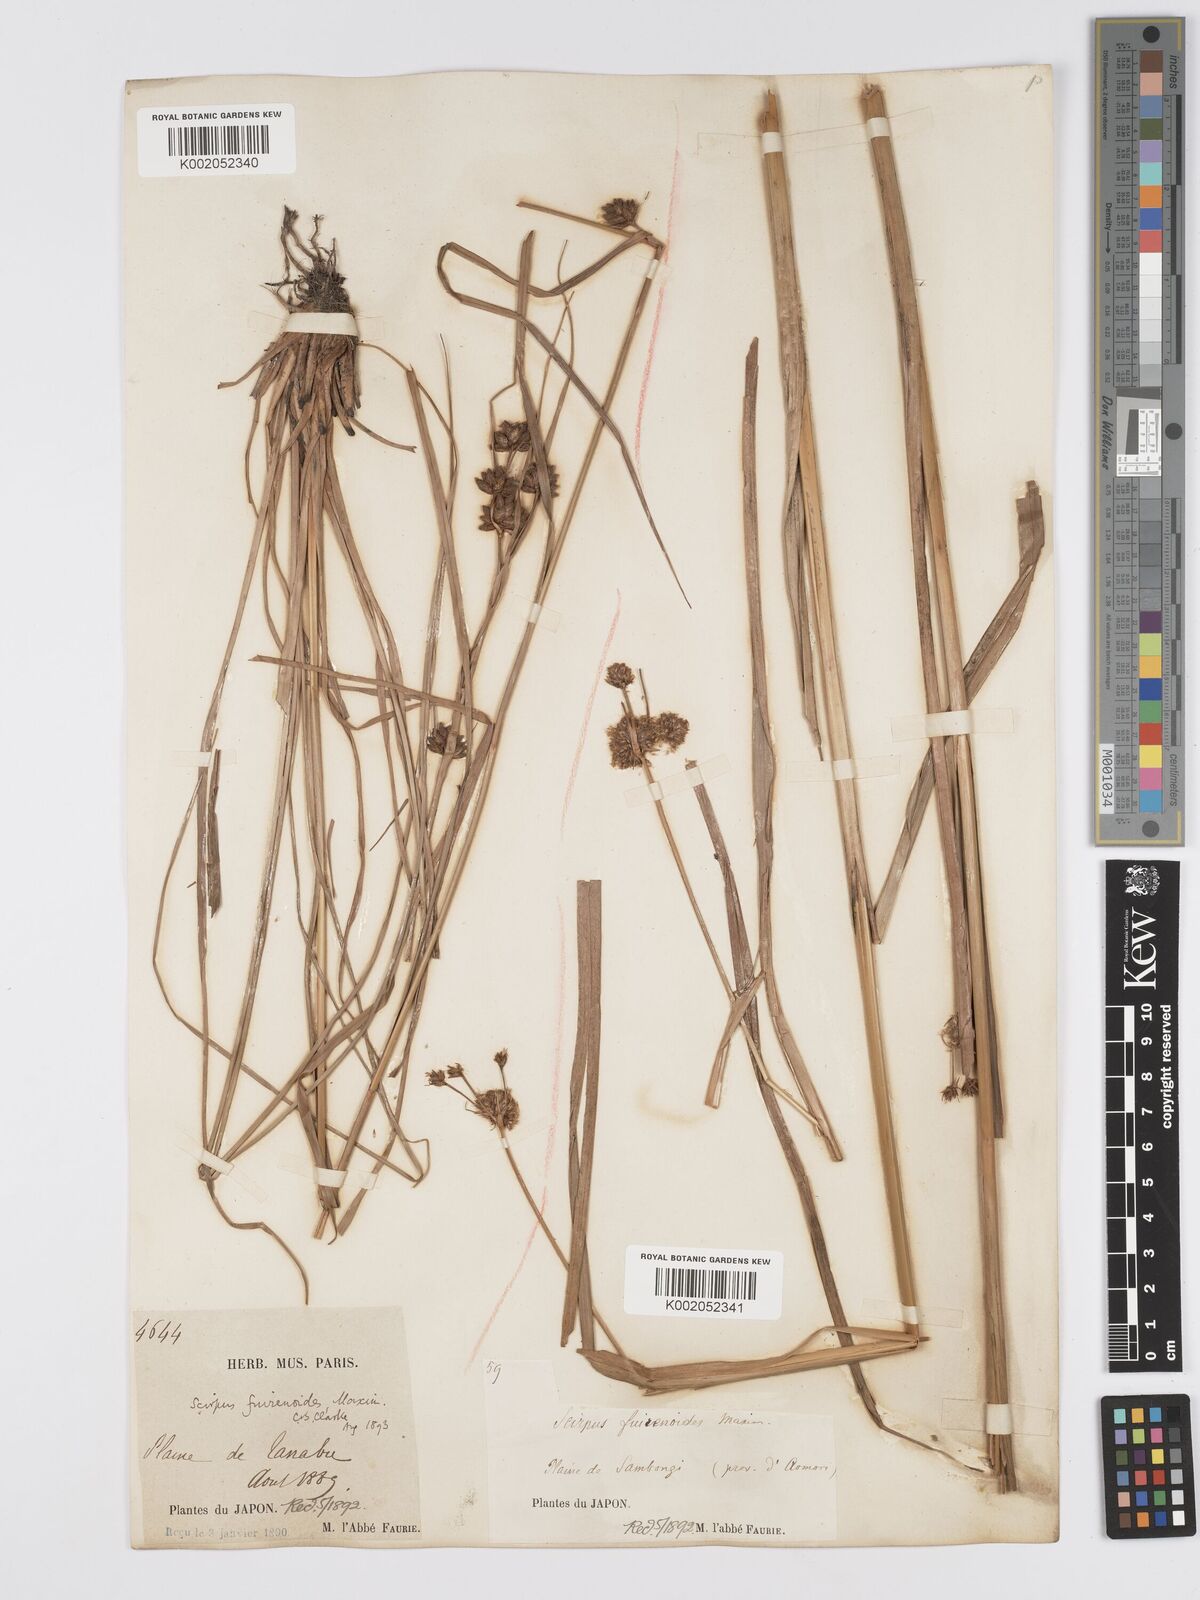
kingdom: Plantae
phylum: Tracheophyta
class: Liliopsida
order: Poales
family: Cyperaceae
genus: Scirpus
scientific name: Scirpus fuirenoides
